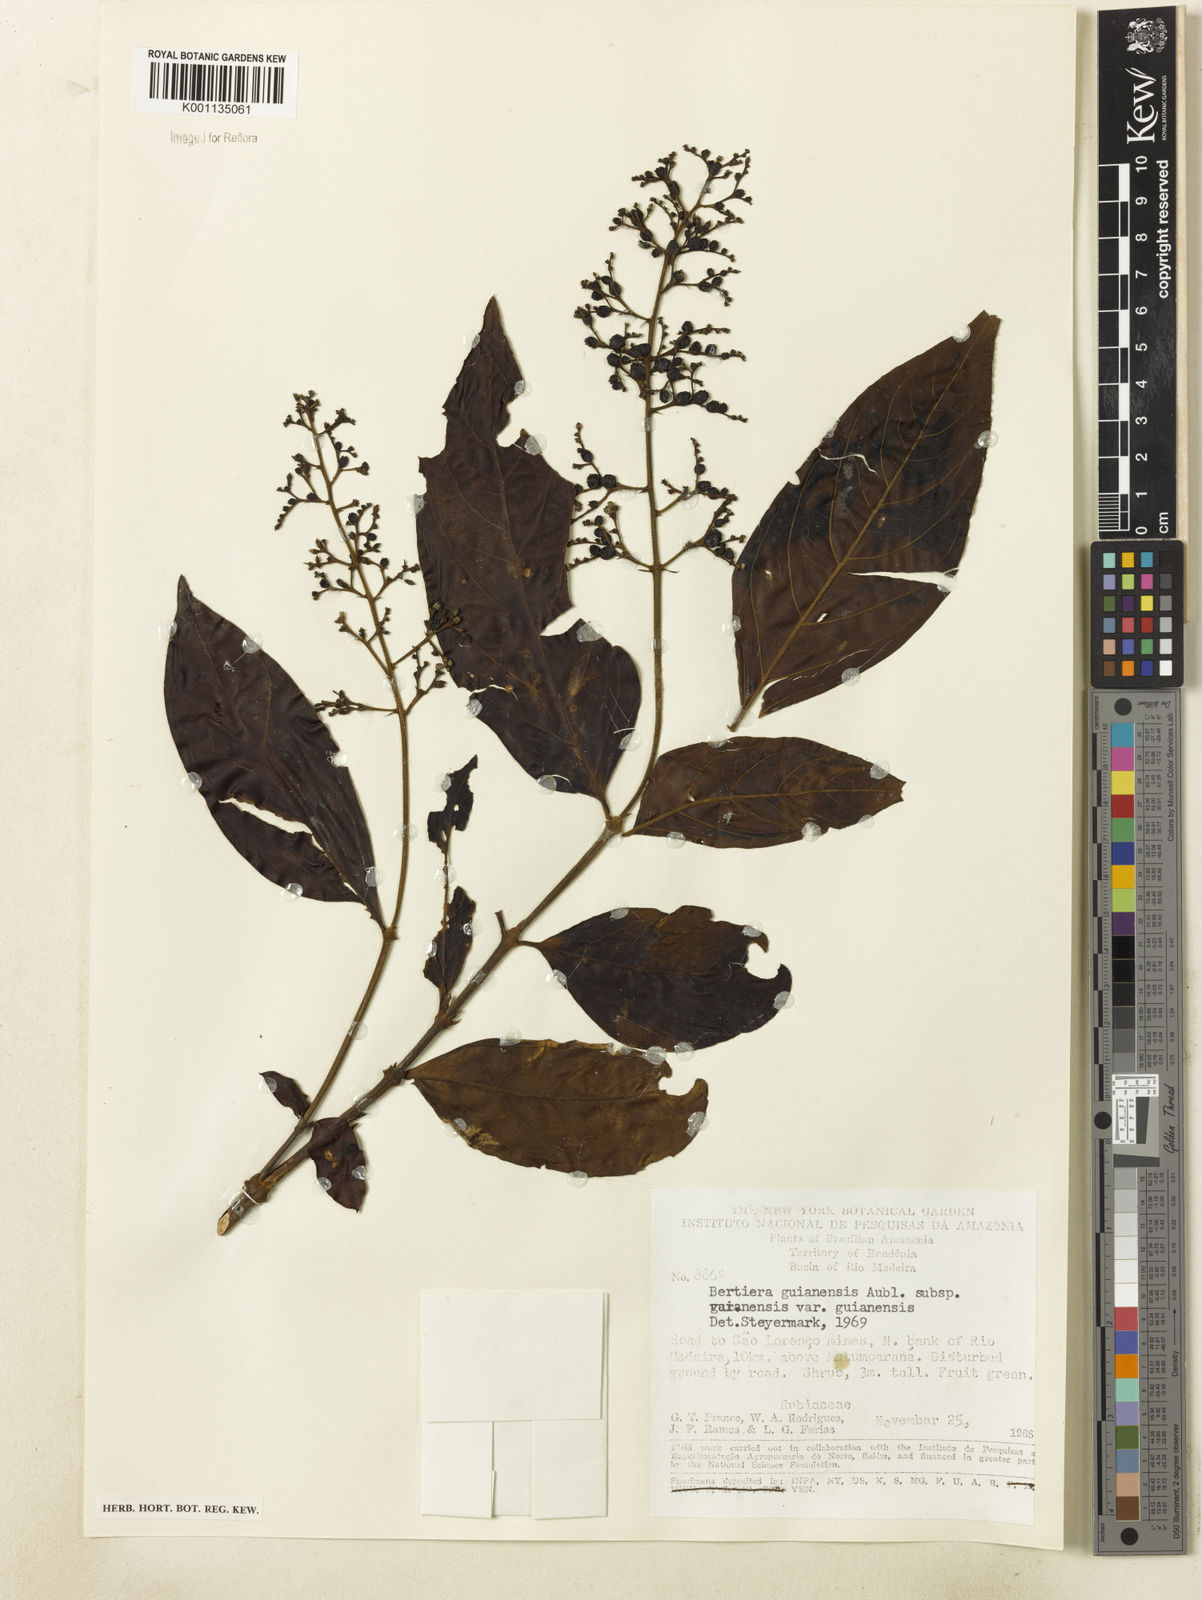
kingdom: Plantae
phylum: Tracheophyta
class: Magnoliopsida
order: Gentianales
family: Rubiaceae
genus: Bertiera
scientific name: Bertiera guianensis
